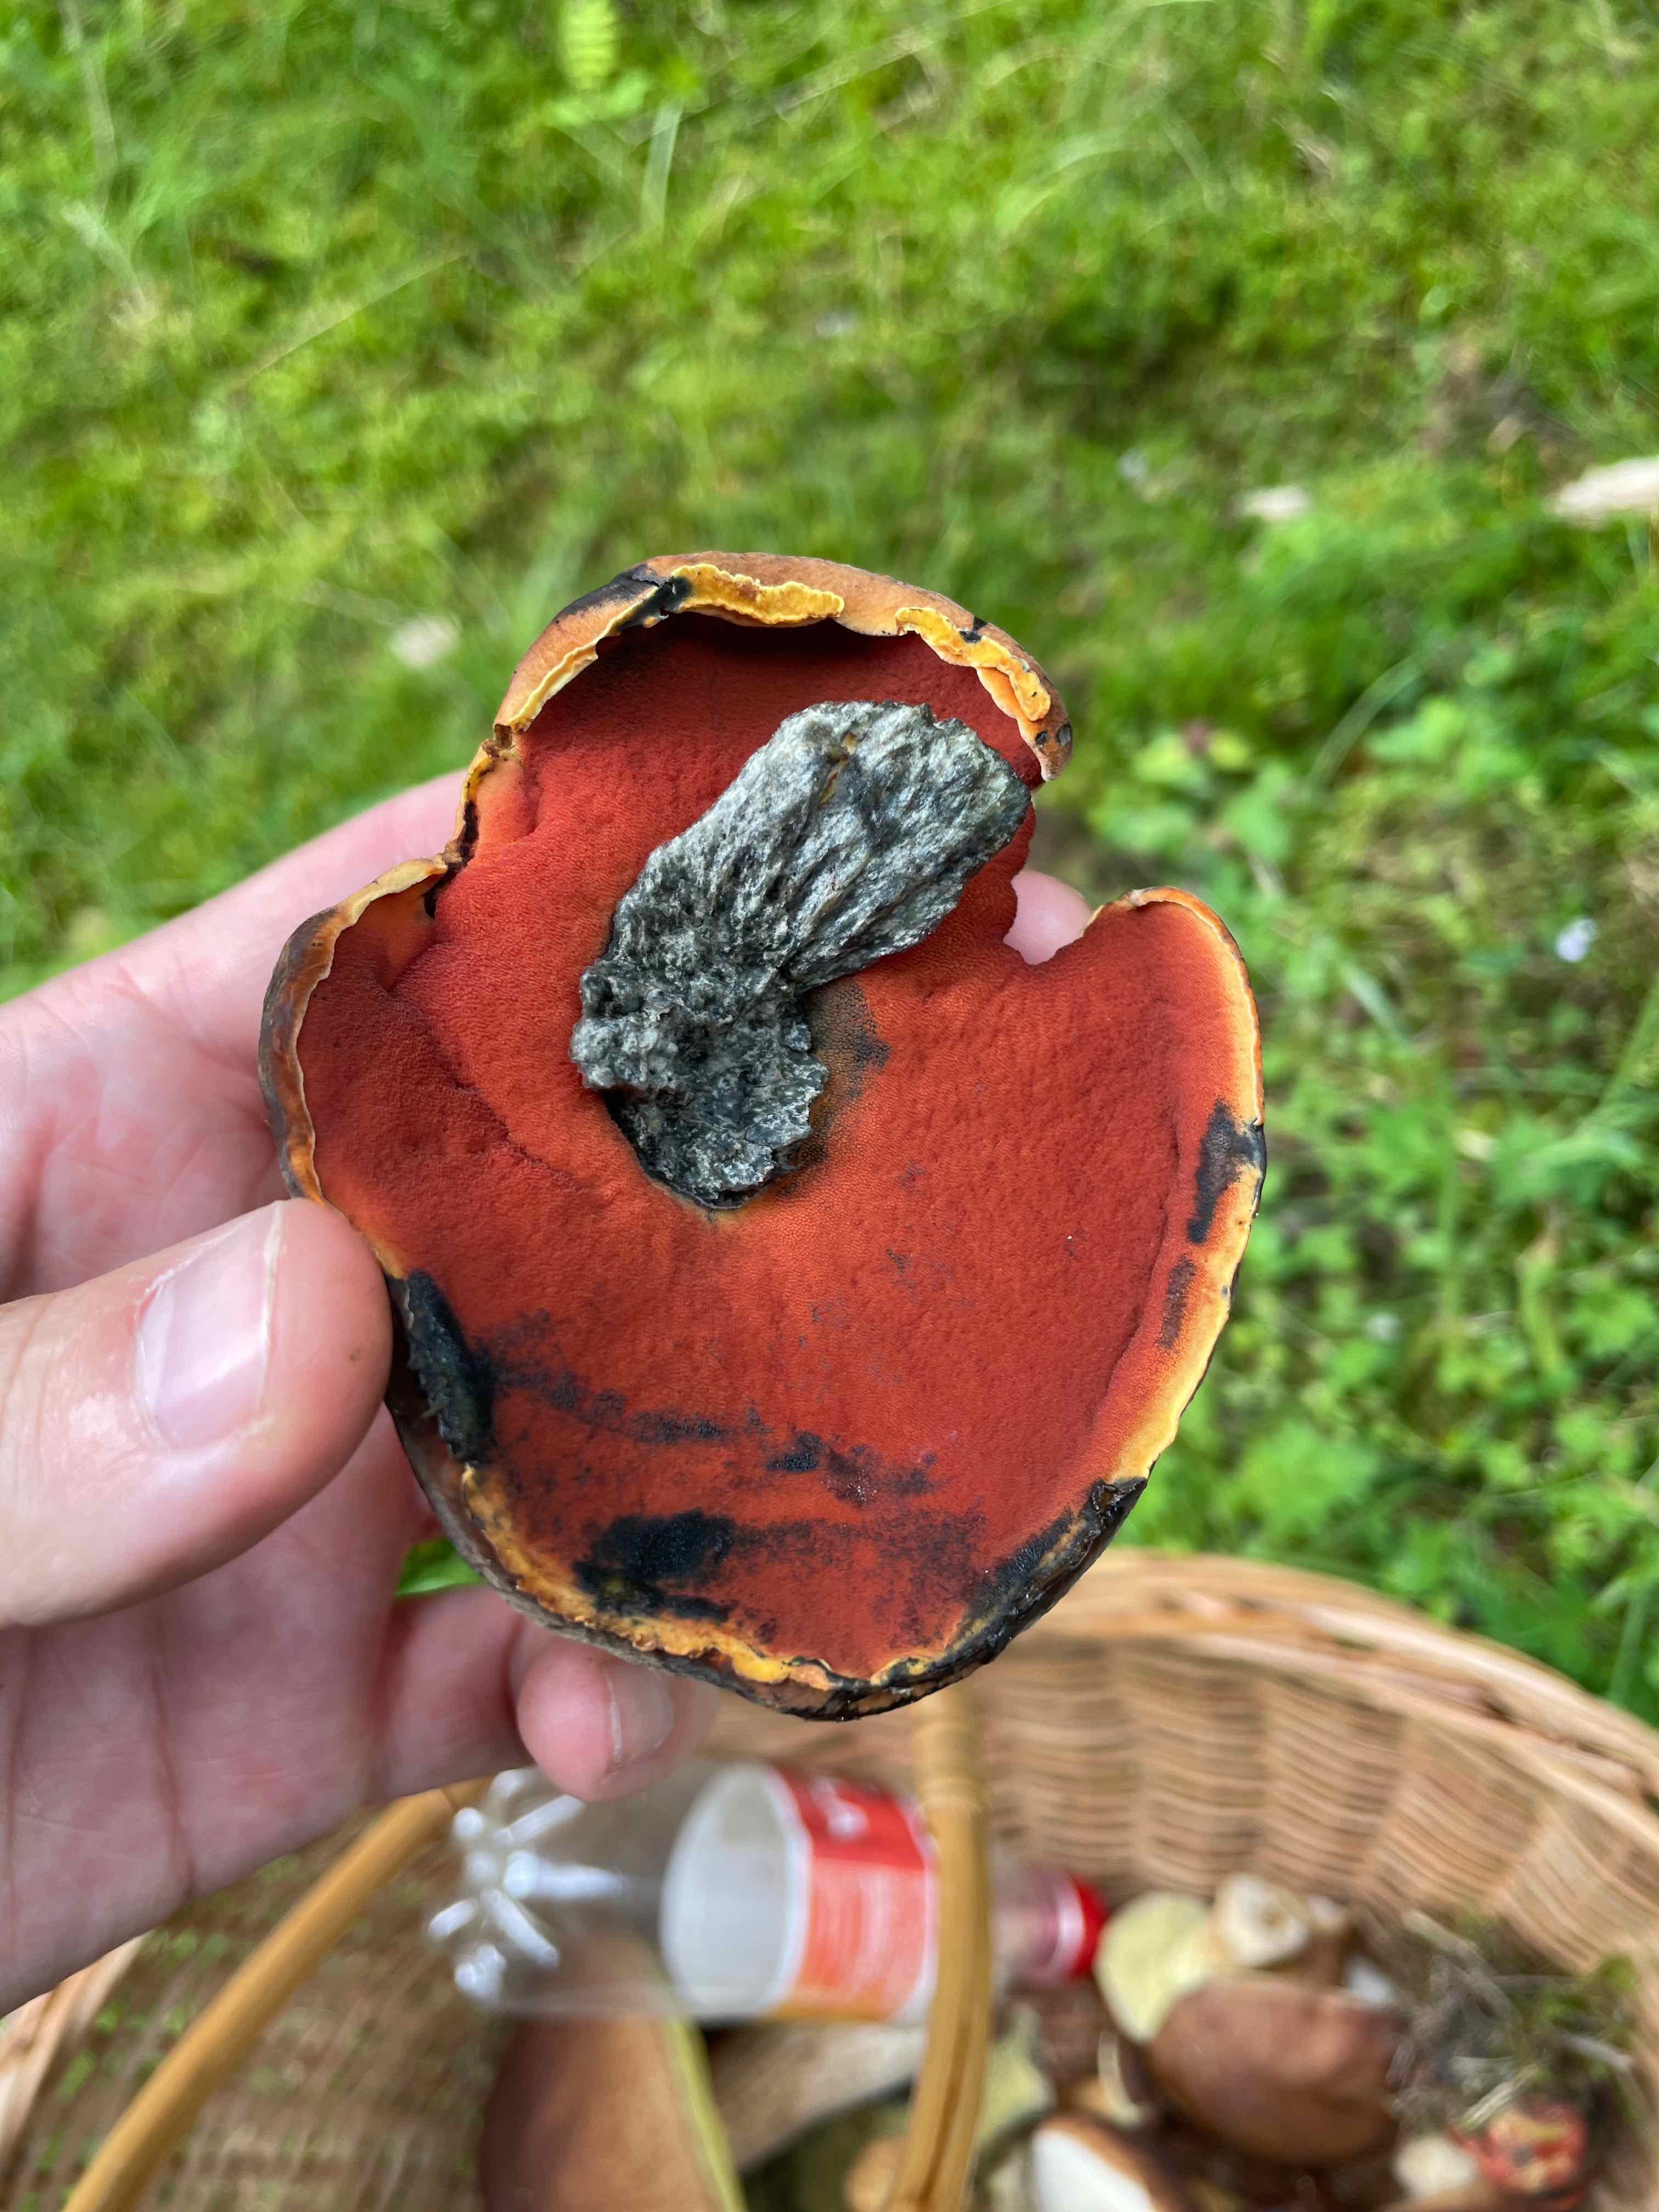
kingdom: Fungi
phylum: Basidiomycota
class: Agaricomycetes
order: Boletales
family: Boletaceae
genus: Suillellus
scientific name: Suillellus luridus
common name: netstokket indigorørhat
